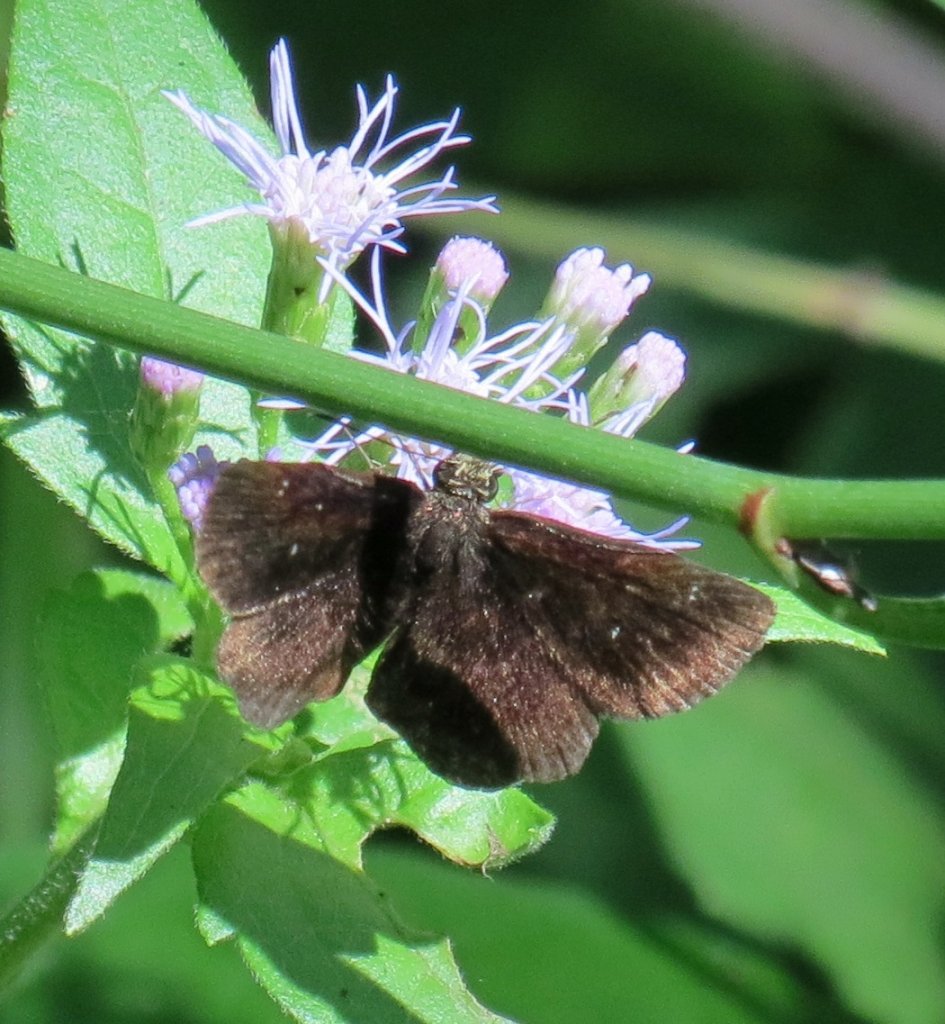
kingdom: Animalia
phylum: Arthropoda
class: Insecta
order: Lepidoptera
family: Hesperiidae
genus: Staphylus
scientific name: Staphylus mazans
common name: Mazans Scallopwing
